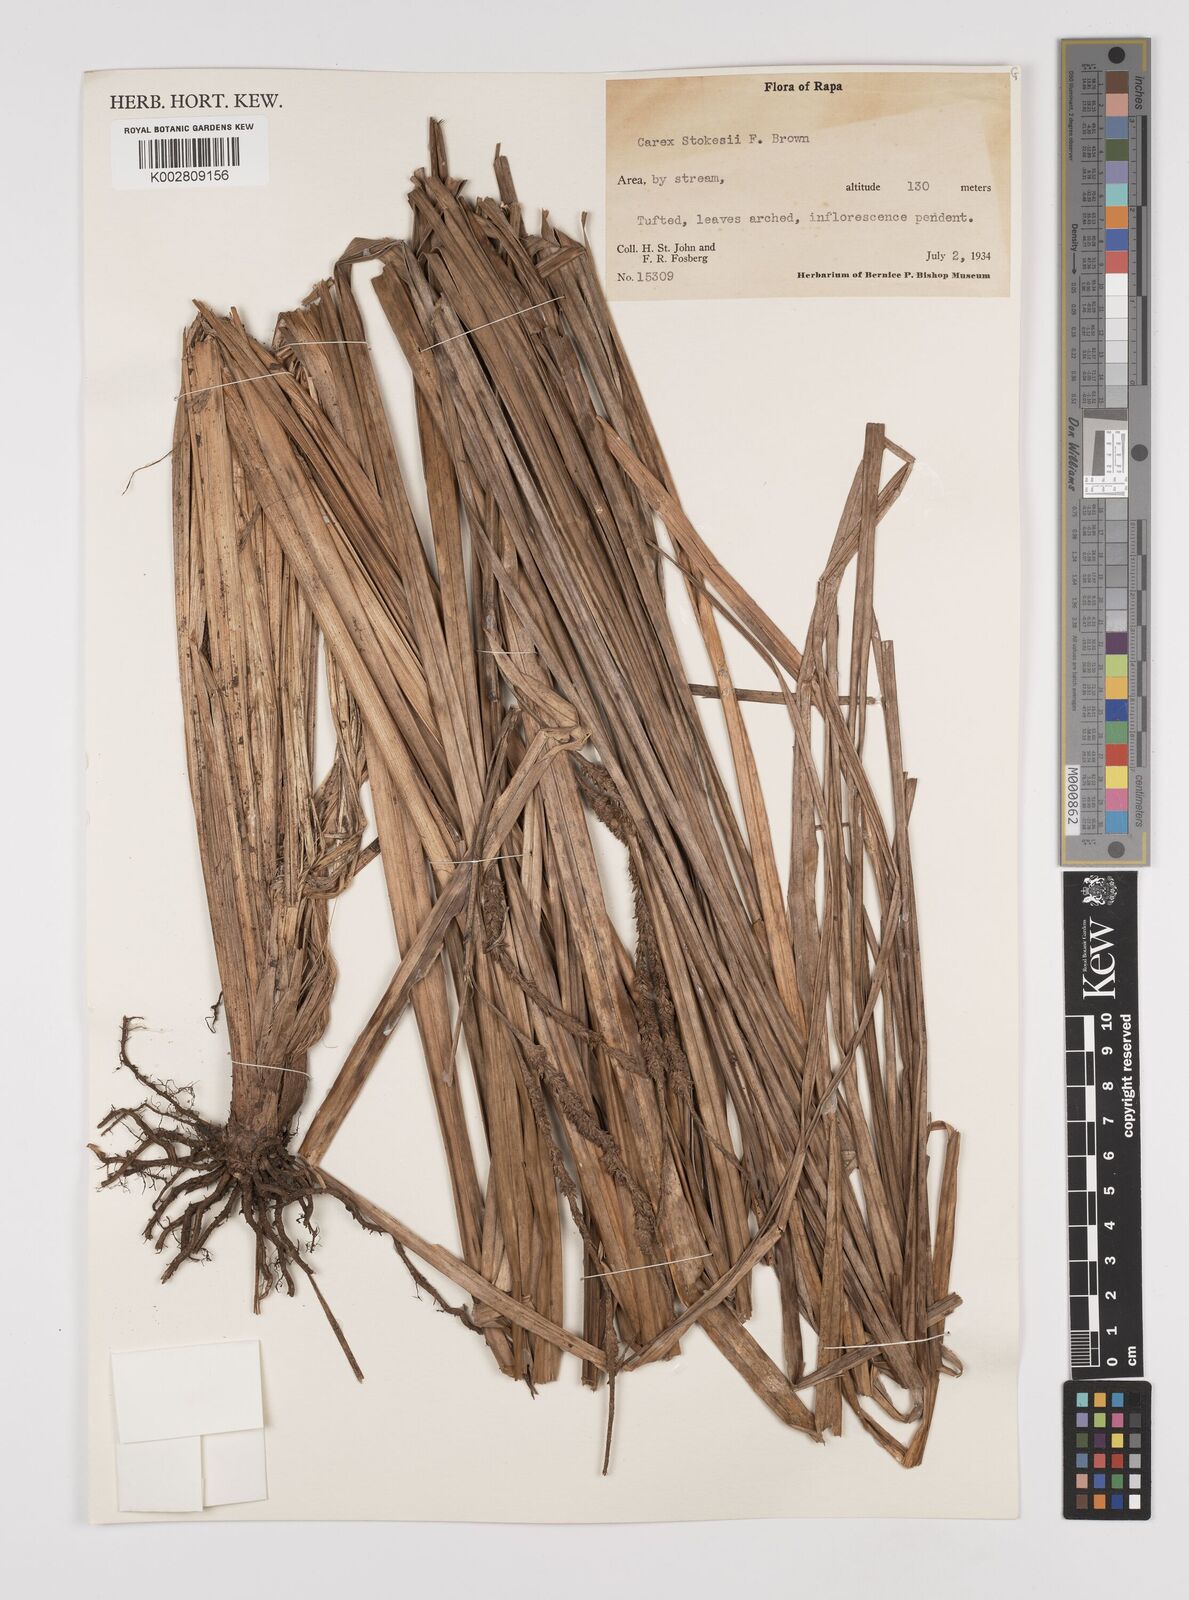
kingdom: Plantae
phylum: Tracheophyta
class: Liliopsida
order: Poales
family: Cyperaceae
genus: Carex
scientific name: Carex stokesii
